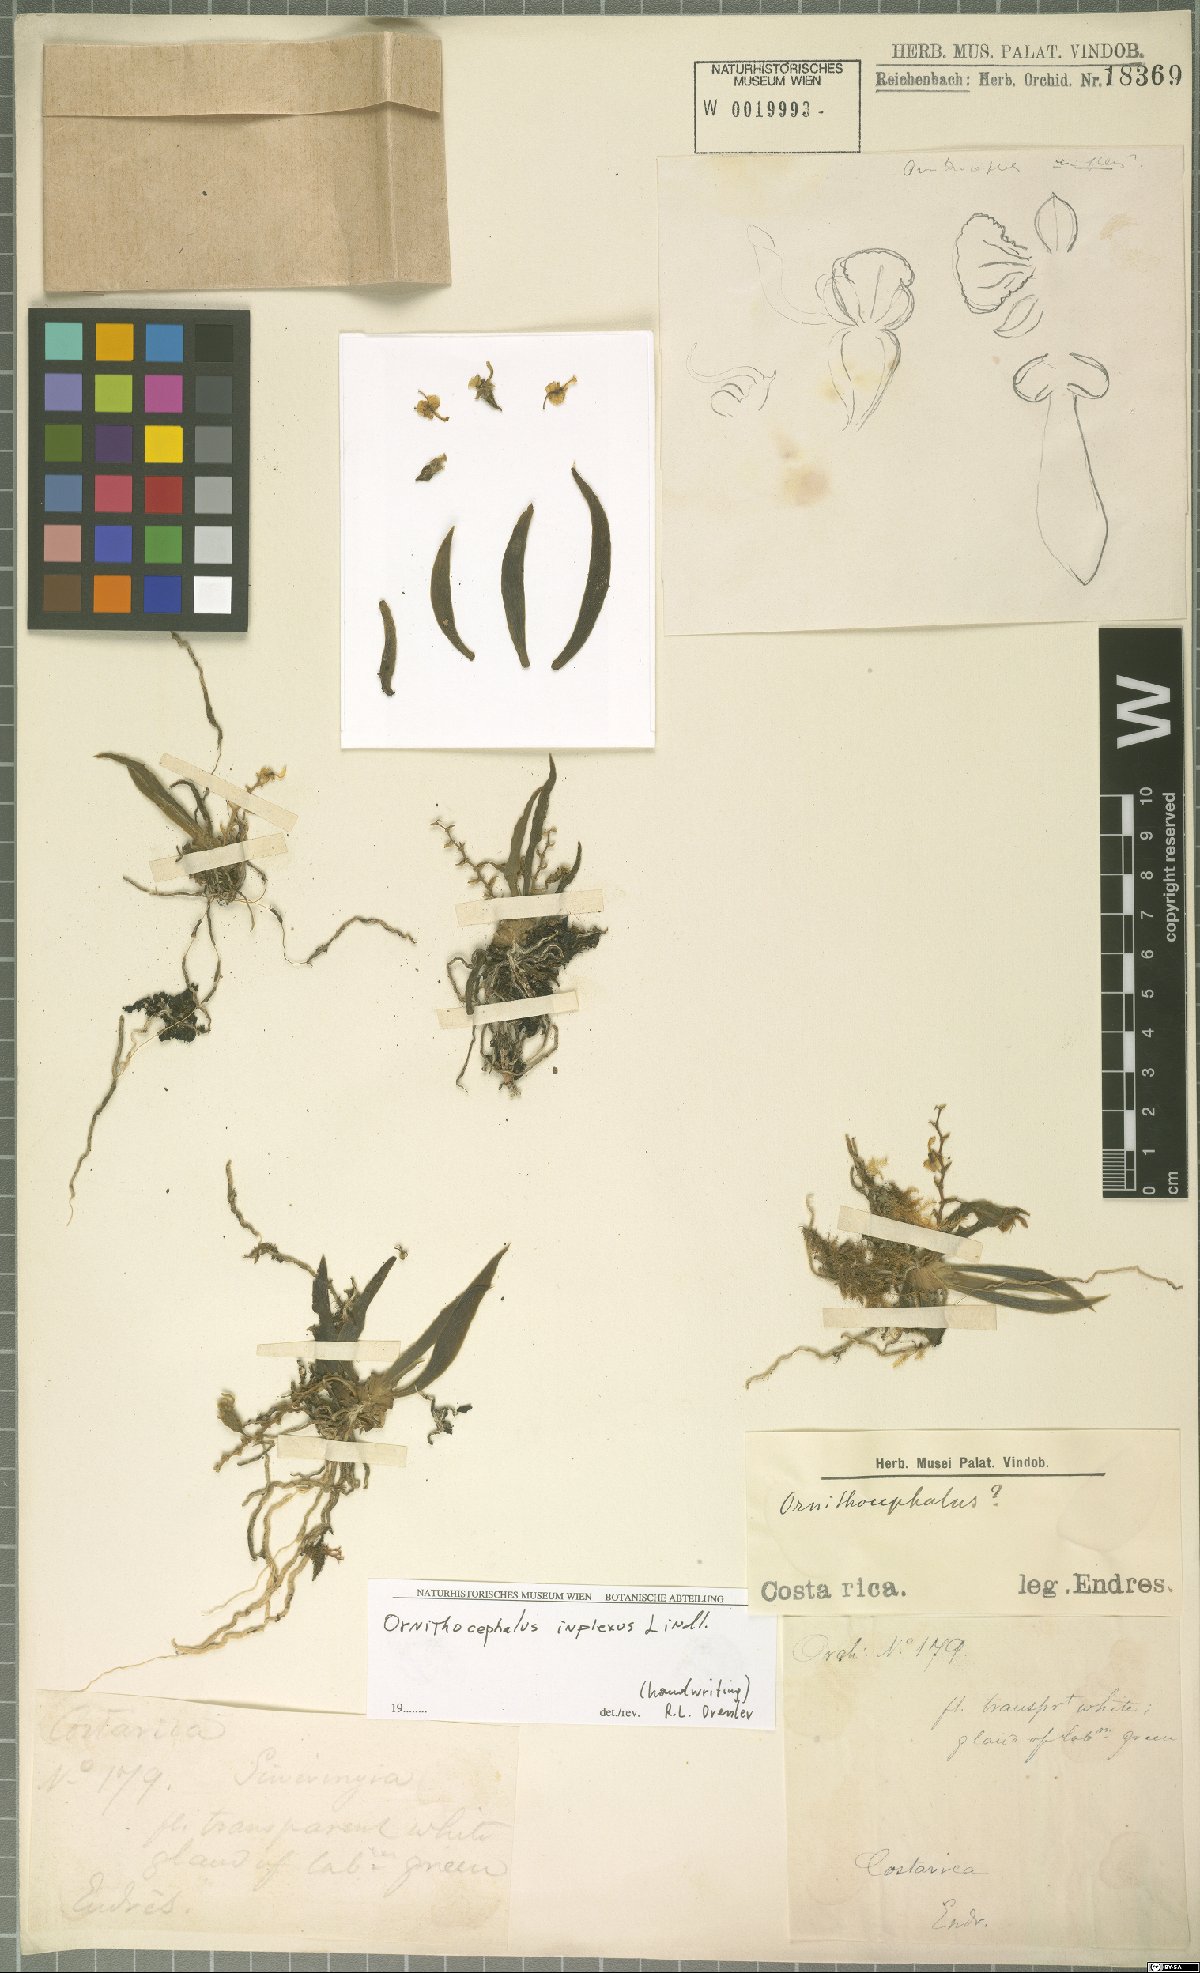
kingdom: Plantae
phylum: Tracheophyta
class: Liliopsida
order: Asparagales
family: Orchidaceae
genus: Ornithocephalus
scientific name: Ornithocephalus inflexus
